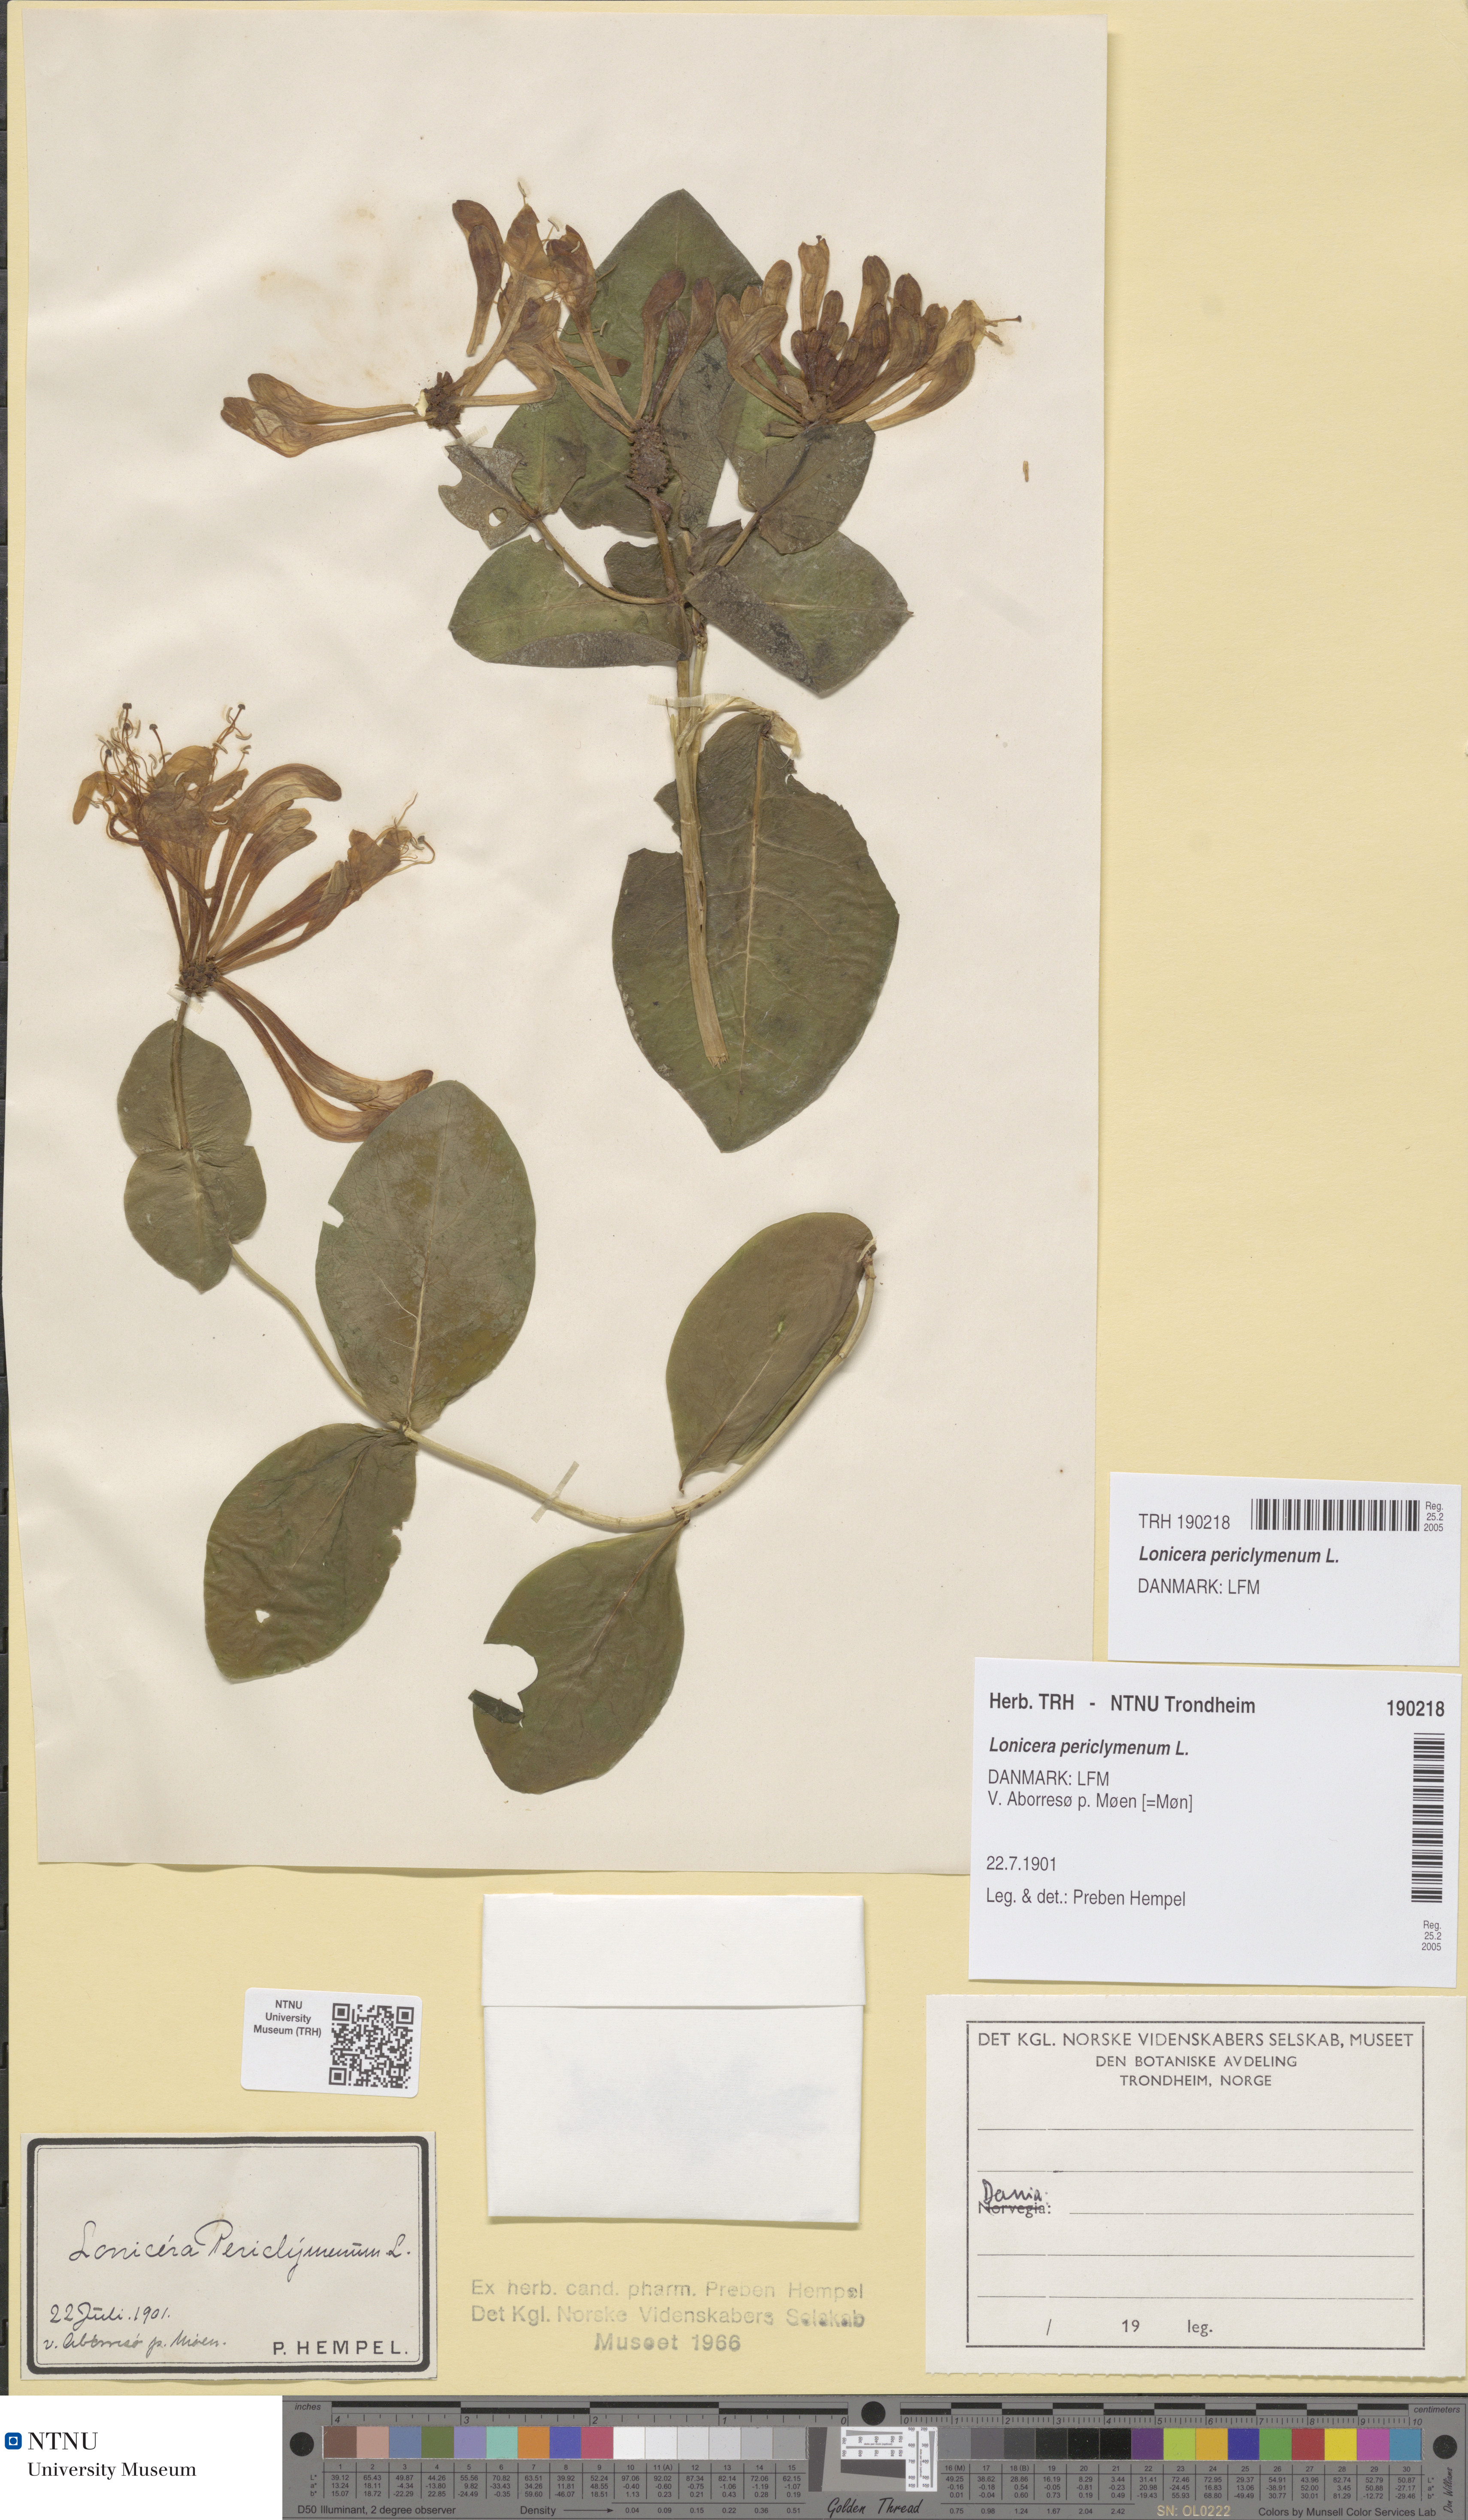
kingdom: Plantae
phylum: Tracheophyta
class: Magnoliopsida
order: Dipsacales
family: Caprifoliaceae
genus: Lonicera
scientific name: Lonicera periclymenum
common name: European honeysuckle
